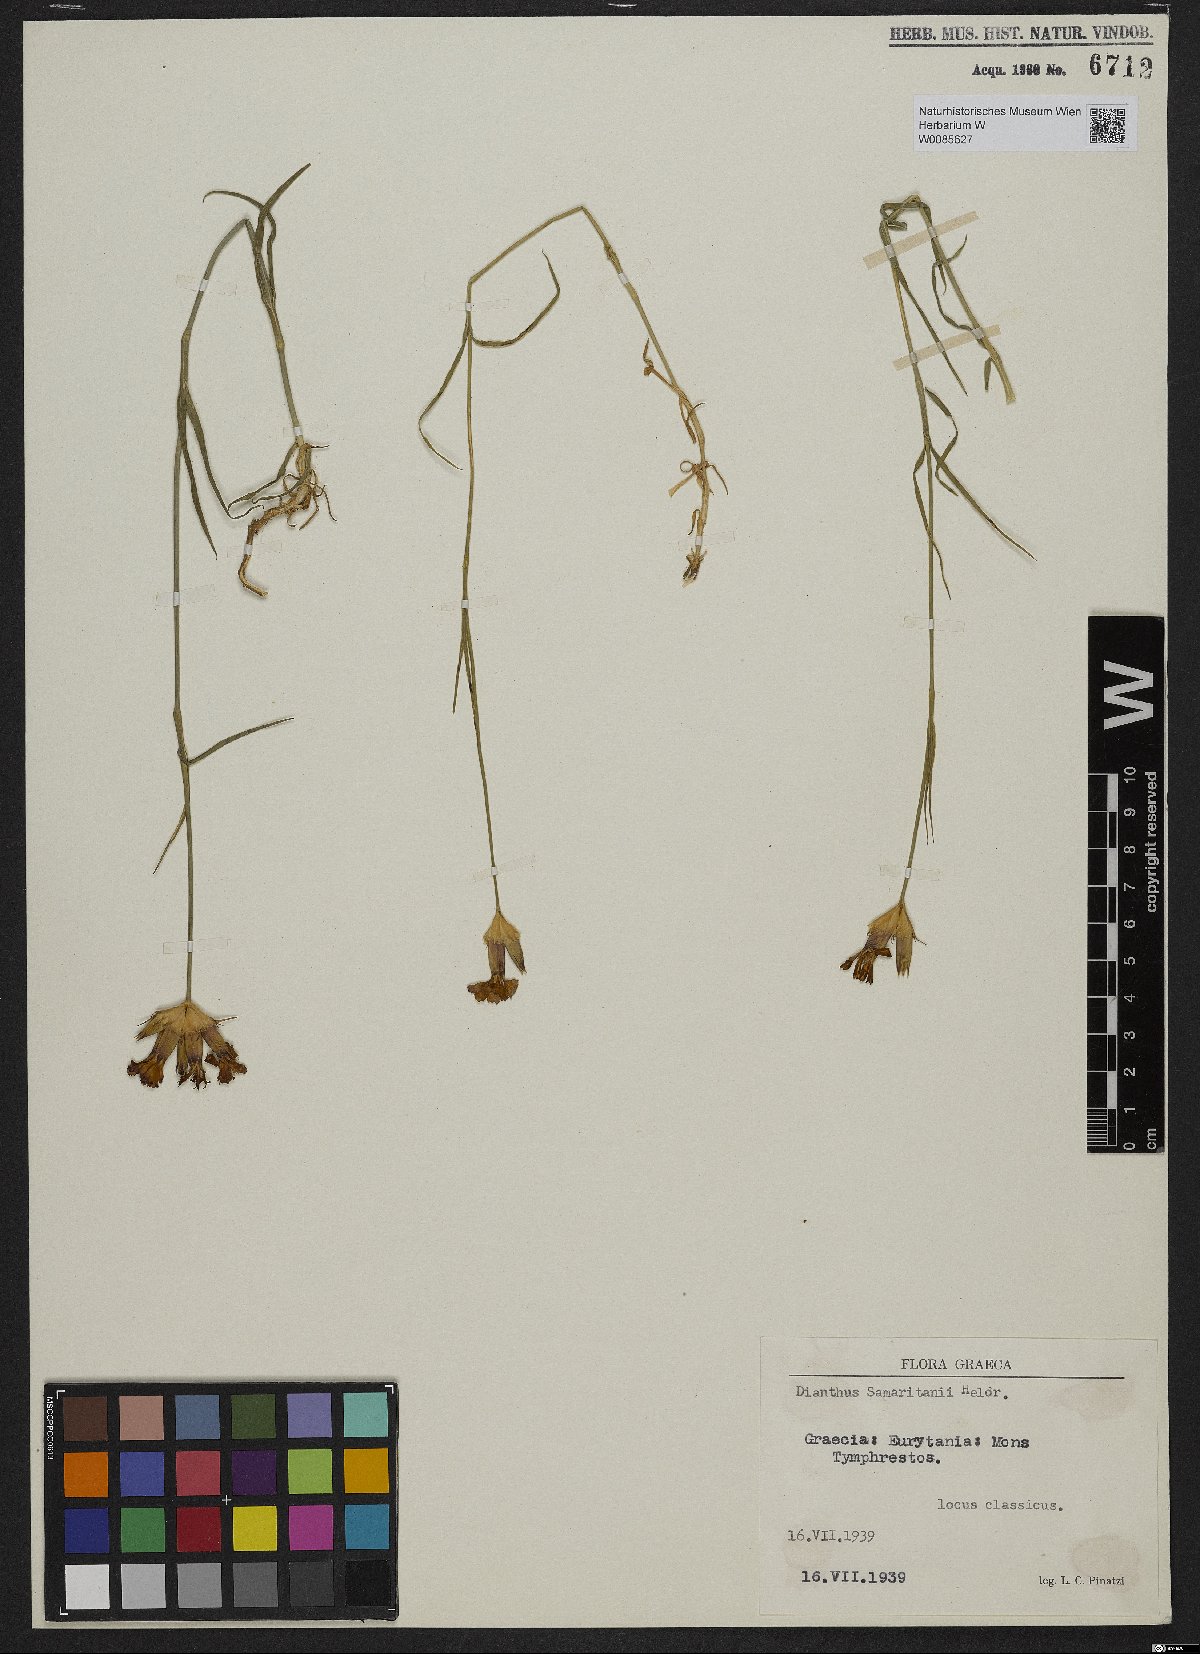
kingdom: Plantae
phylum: Tracheophyta
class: Magnoliopsida
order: Caryophyllales
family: Caryophyllaceae
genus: Dianthus
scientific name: Dianthus biflorus
